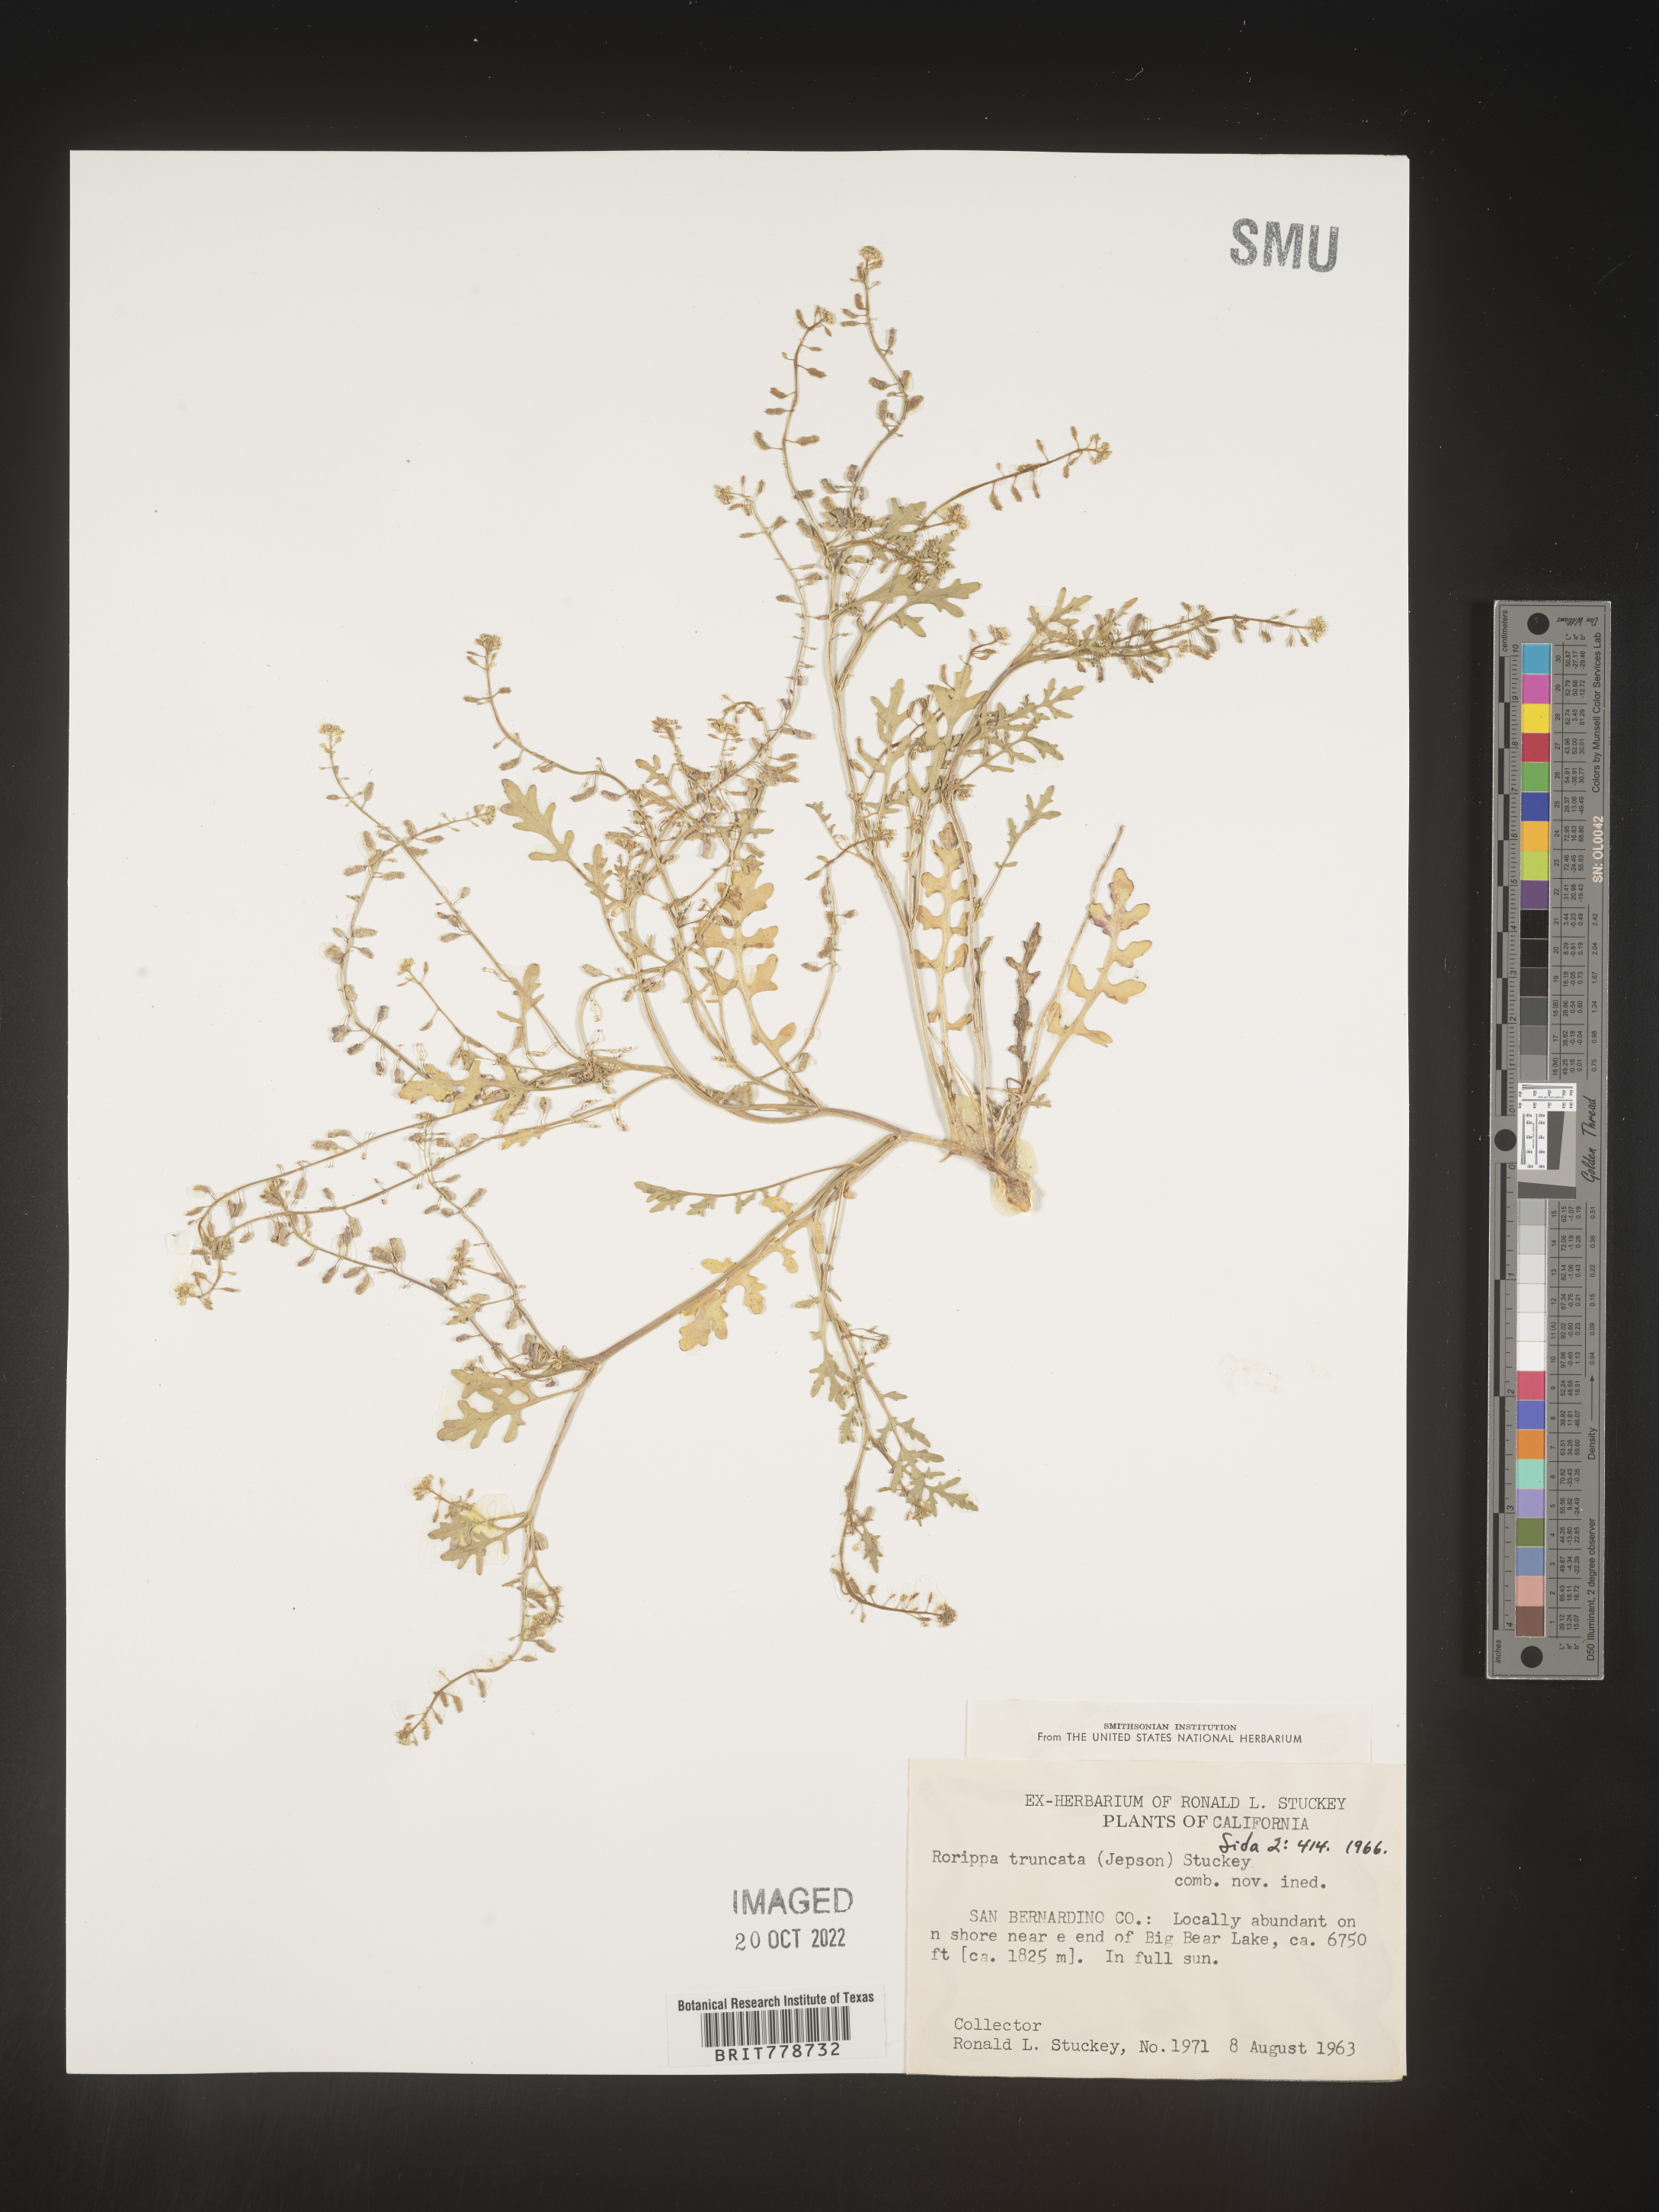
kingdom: Plantae
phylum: Tracheophyta
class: Magnoliopsida
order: Brassicales
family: Brassicaceae
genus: Rorippa
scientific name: Rorippa
